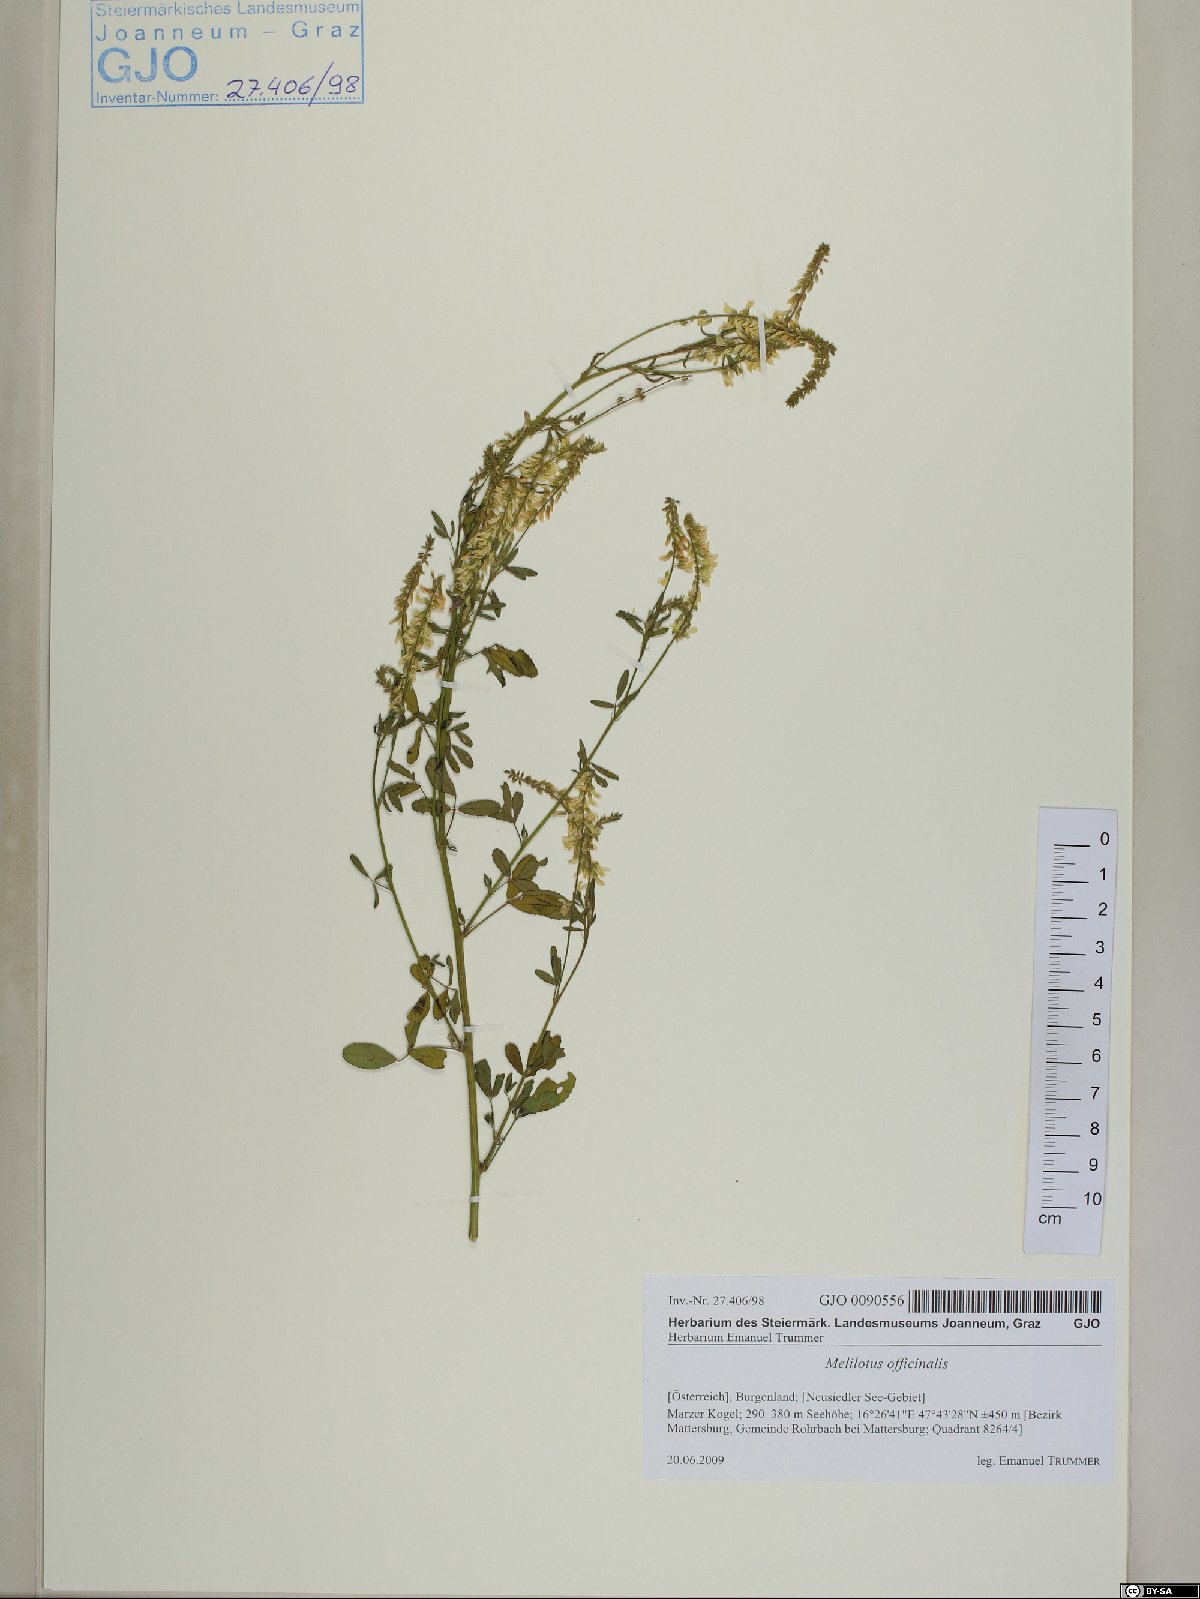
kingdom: Plantae
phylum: Tracheophyta
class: Magnoliopsida
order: Fabales
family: Fabaceae
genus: Melilotus
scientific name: Melilotus officinalis
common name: Sweetclover
